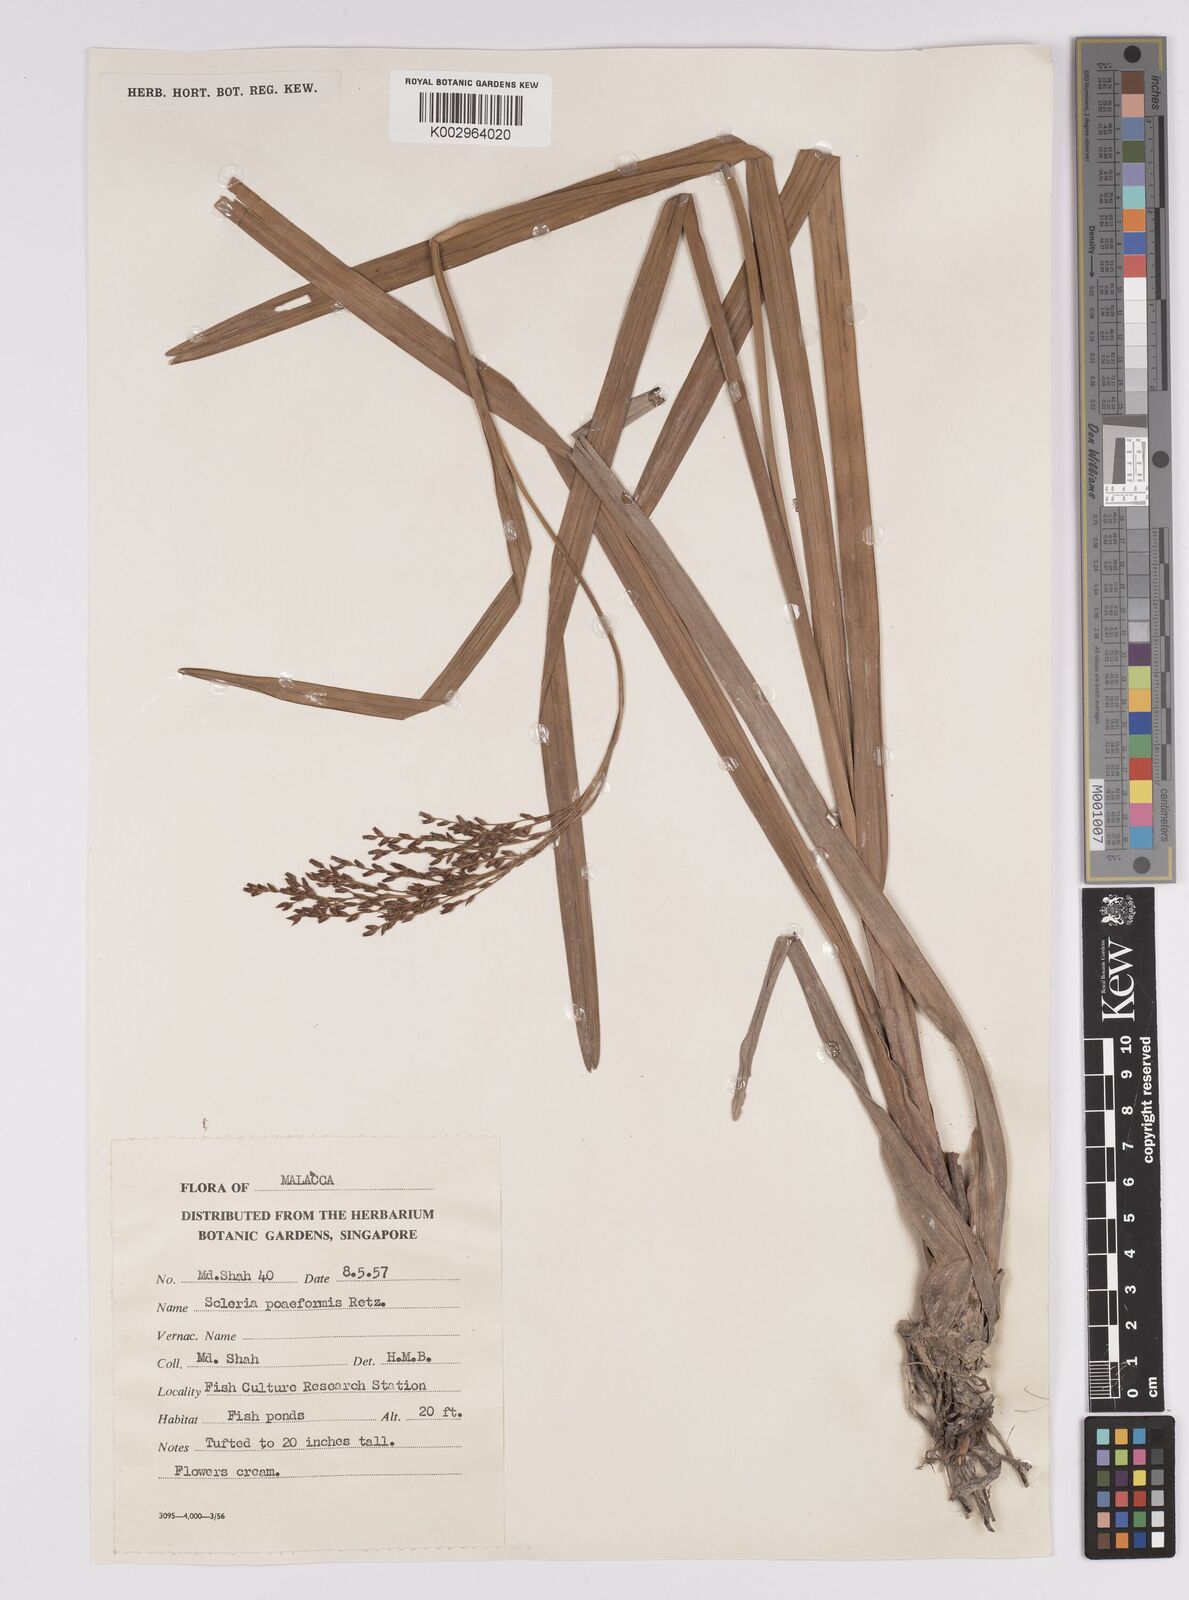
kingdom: Plantae
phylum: Tracheophyta
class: Liliopsida
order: Poales
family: Cyperaceae
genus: Scleria
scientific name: Scleria poiformis
